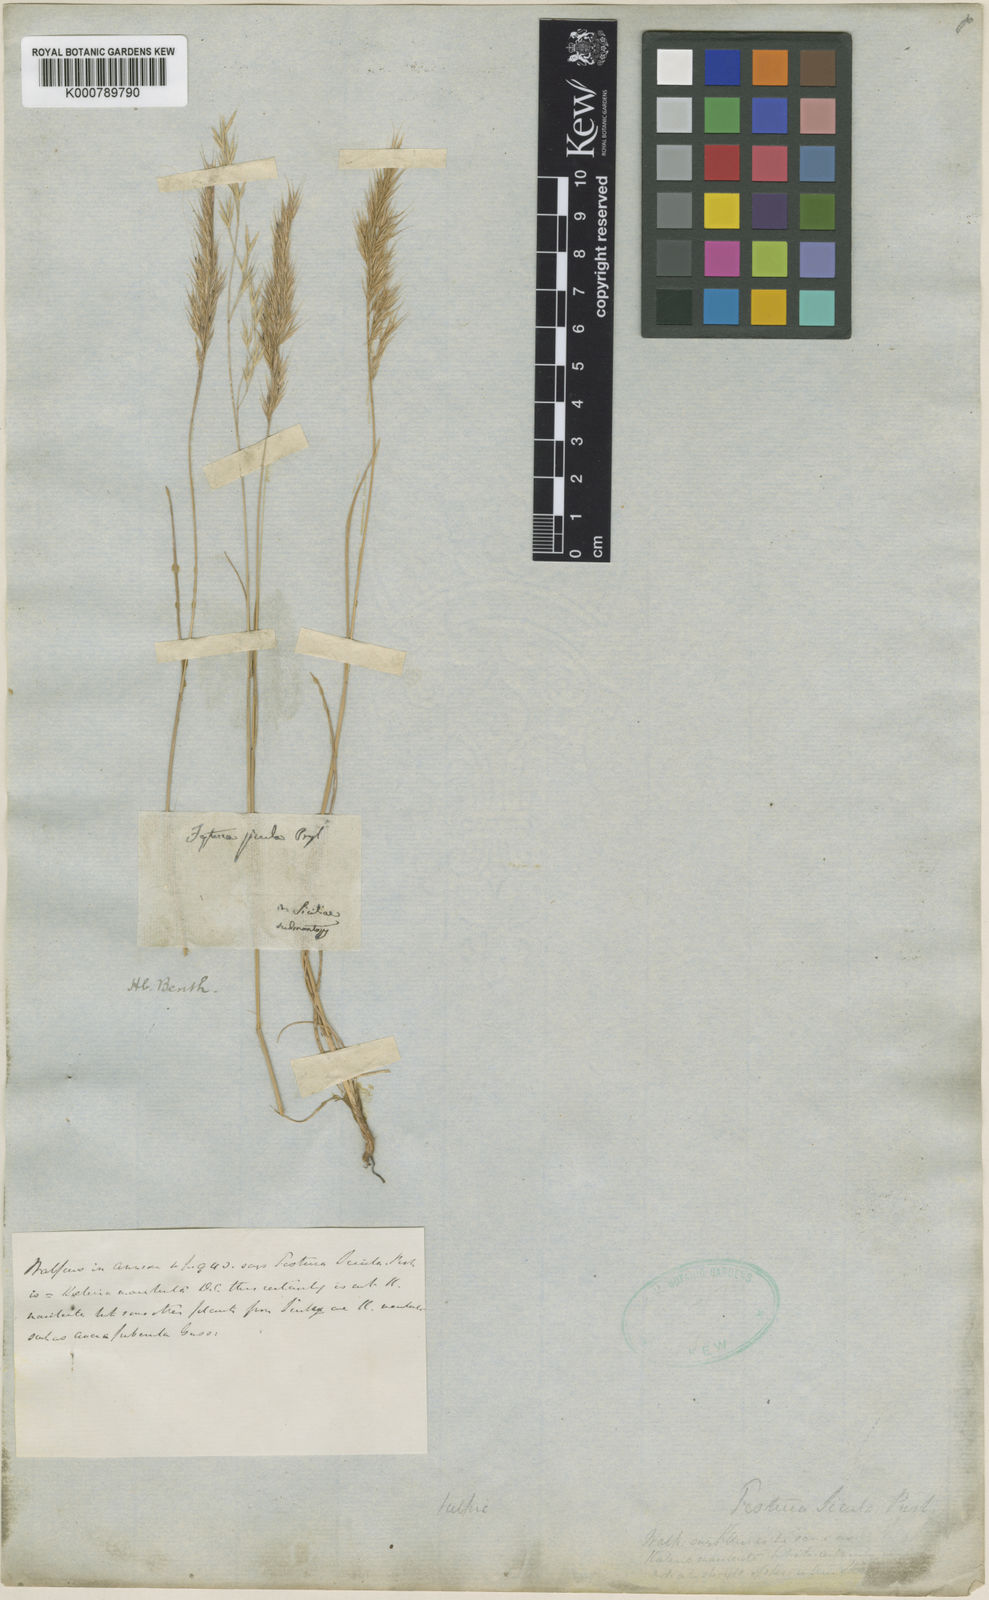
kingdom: Plantae
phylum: Tracheophyta
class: Liliopsida
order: Poales
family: Poaceae
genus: Festuca
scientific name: Festuca sicula
